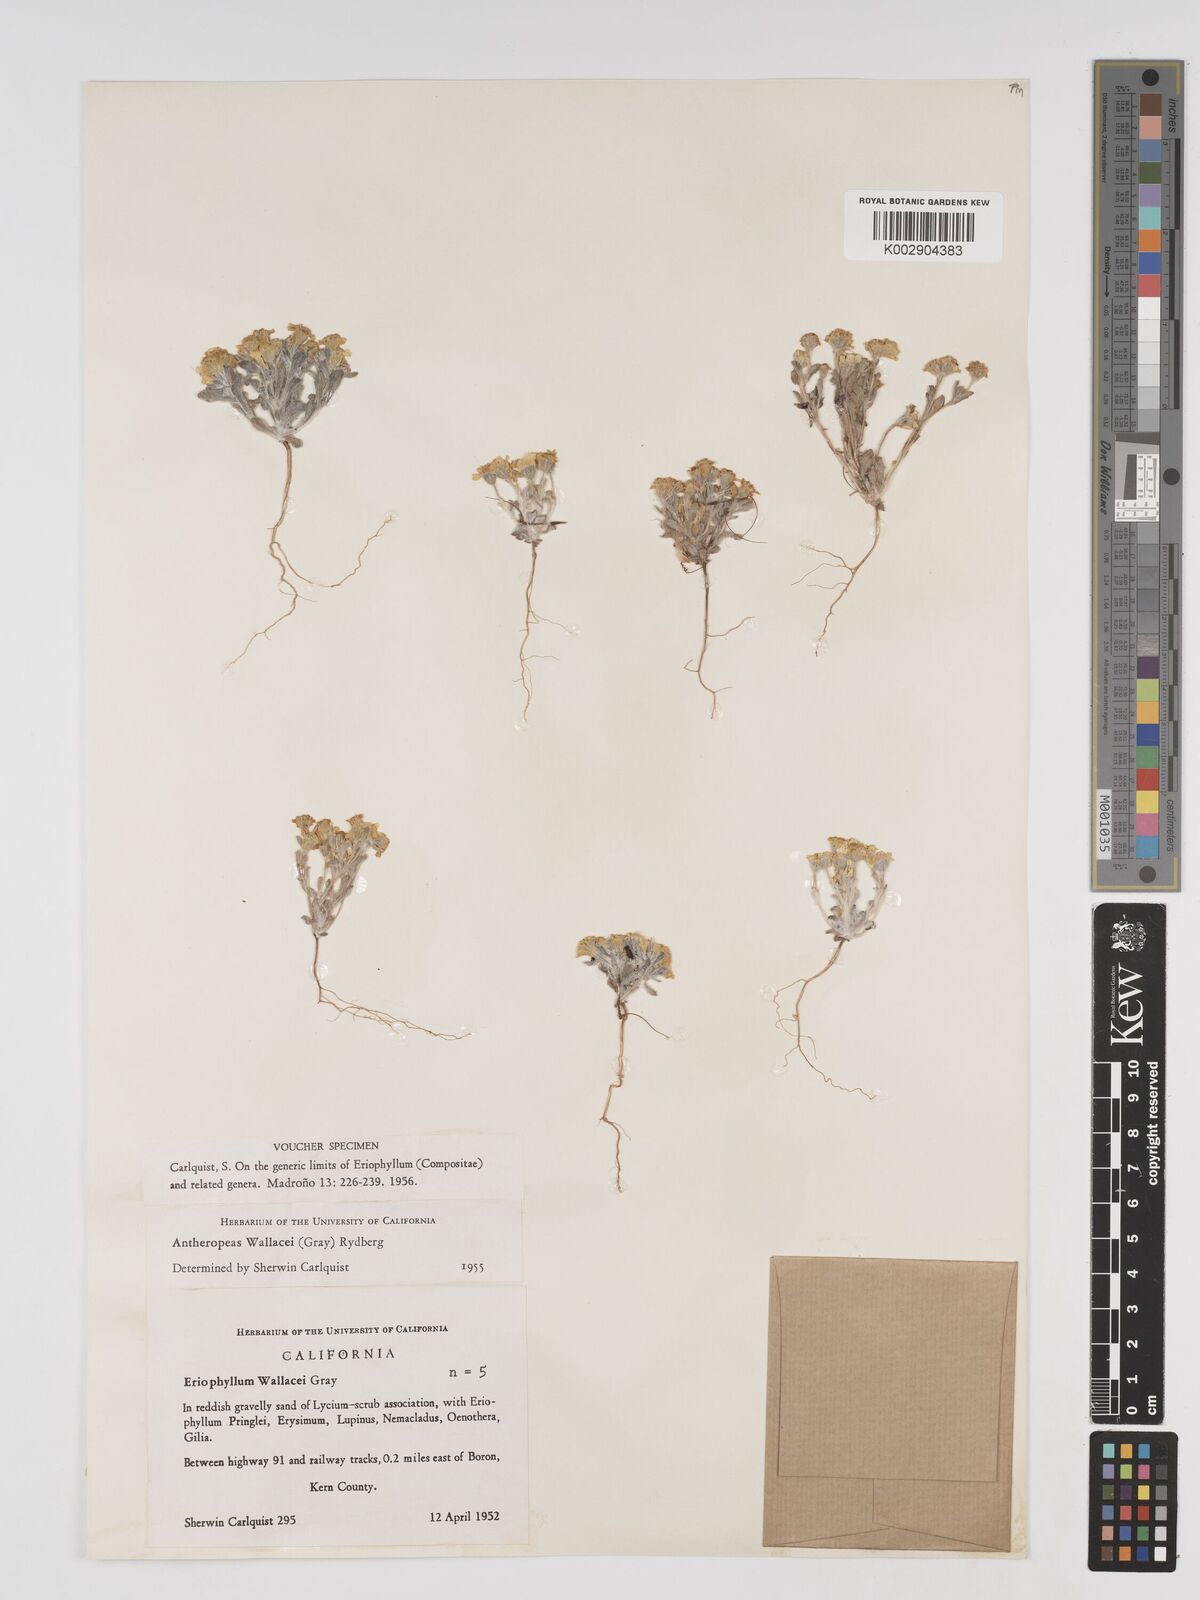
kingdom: Plantae
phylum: Tracheophyta
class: Magnoliopsida
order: Asterales
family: Asteraceae
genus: Eriophyllum
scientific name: Eriophyllum lanosum
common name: White easter-bonnets
